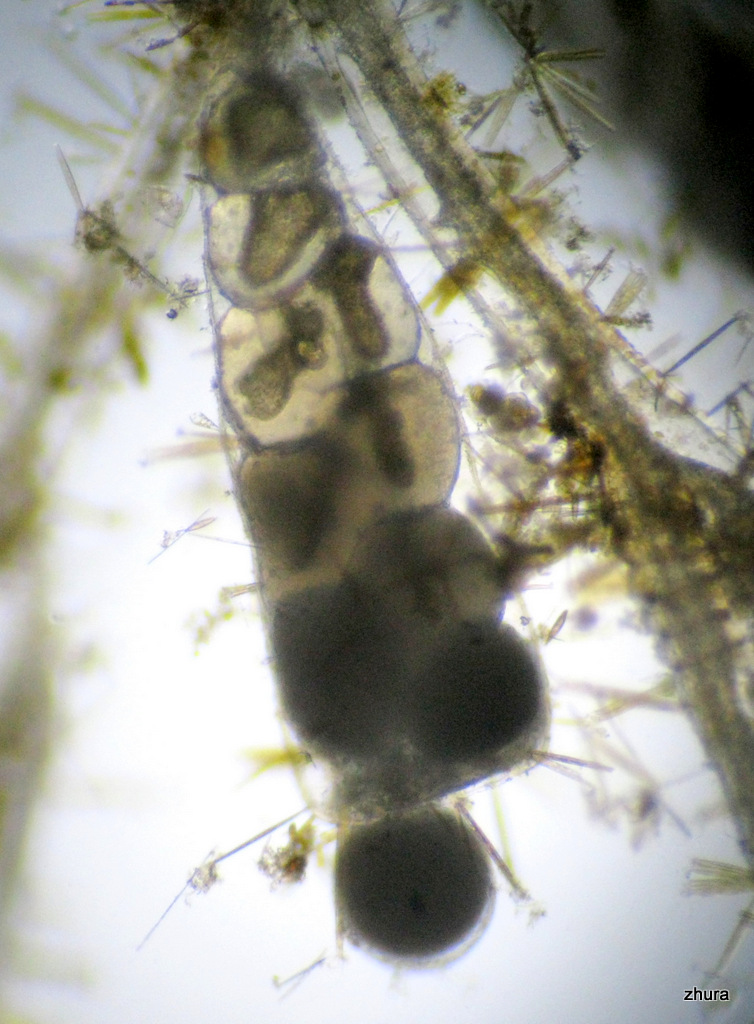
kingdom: Animalia
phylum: Cnidaria
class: Hydrozoa
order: Leptothecata
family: Campanulariidae
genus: Gonothyraea
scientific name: Gonothyraea loveni
